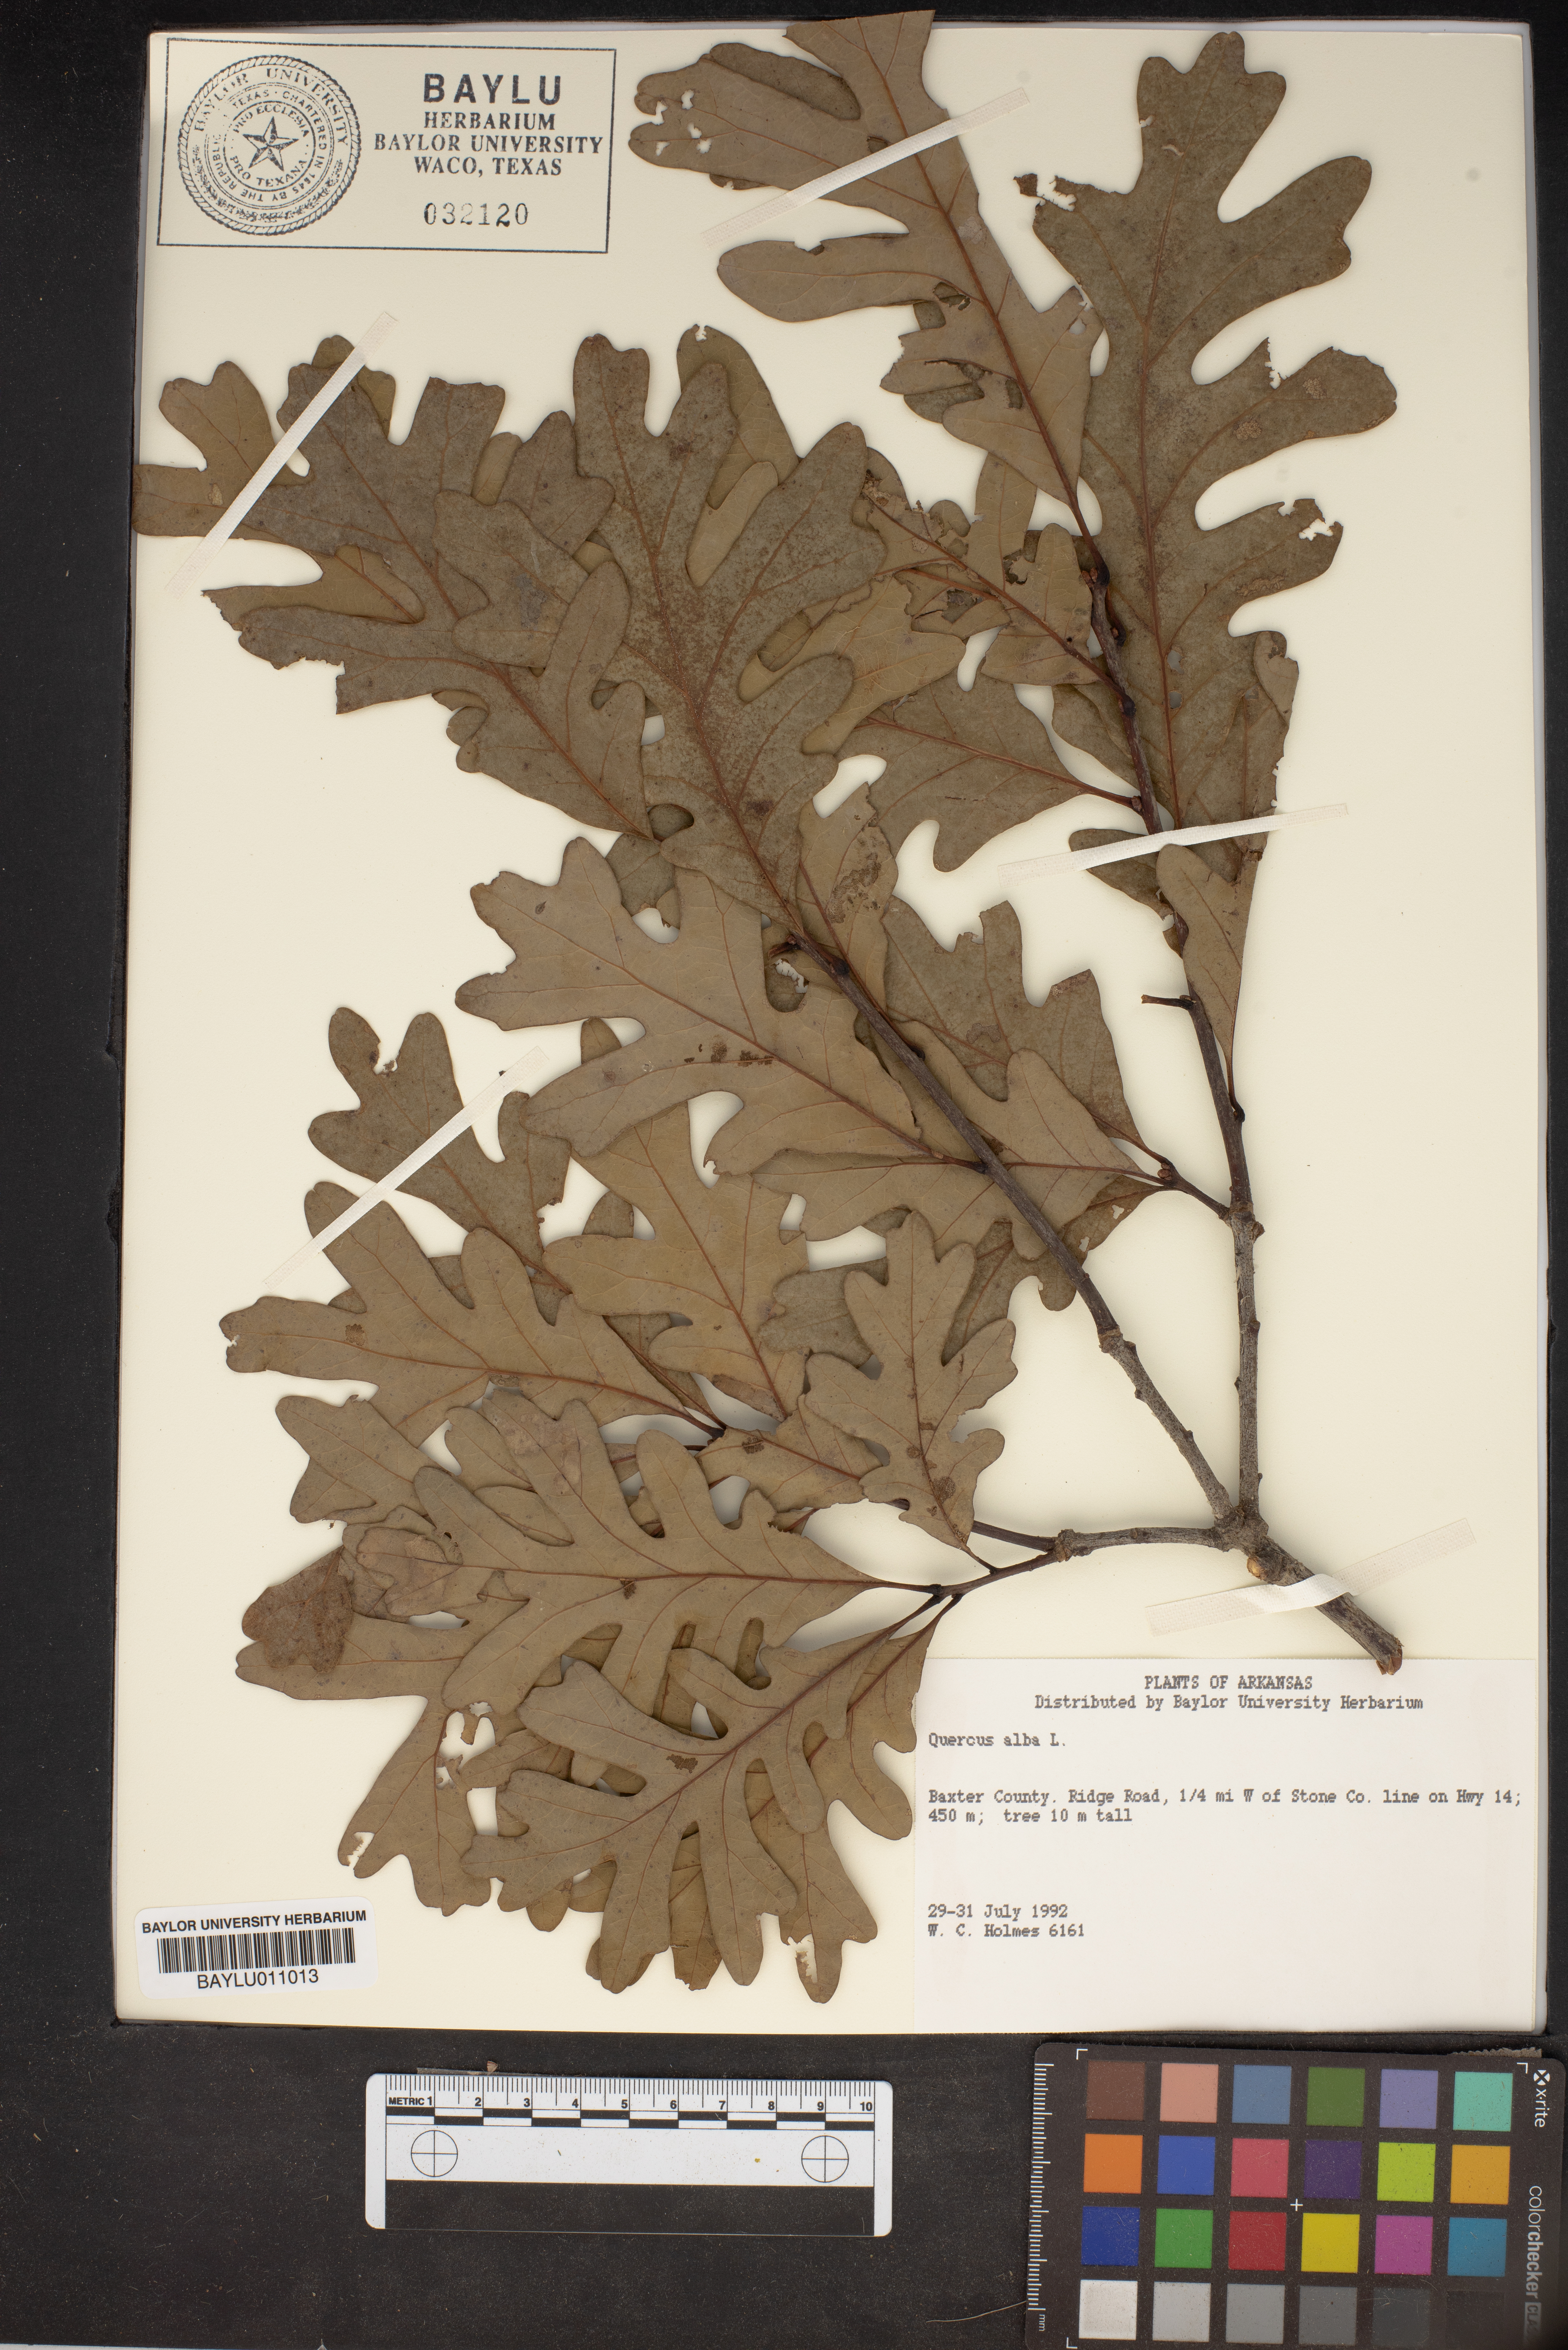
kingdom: Plantae
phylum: Tracheophyta
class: Magnoliopsida
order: Fagales
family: Fagaceae
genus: Quercus
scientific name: Quercus alba
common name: White oak
